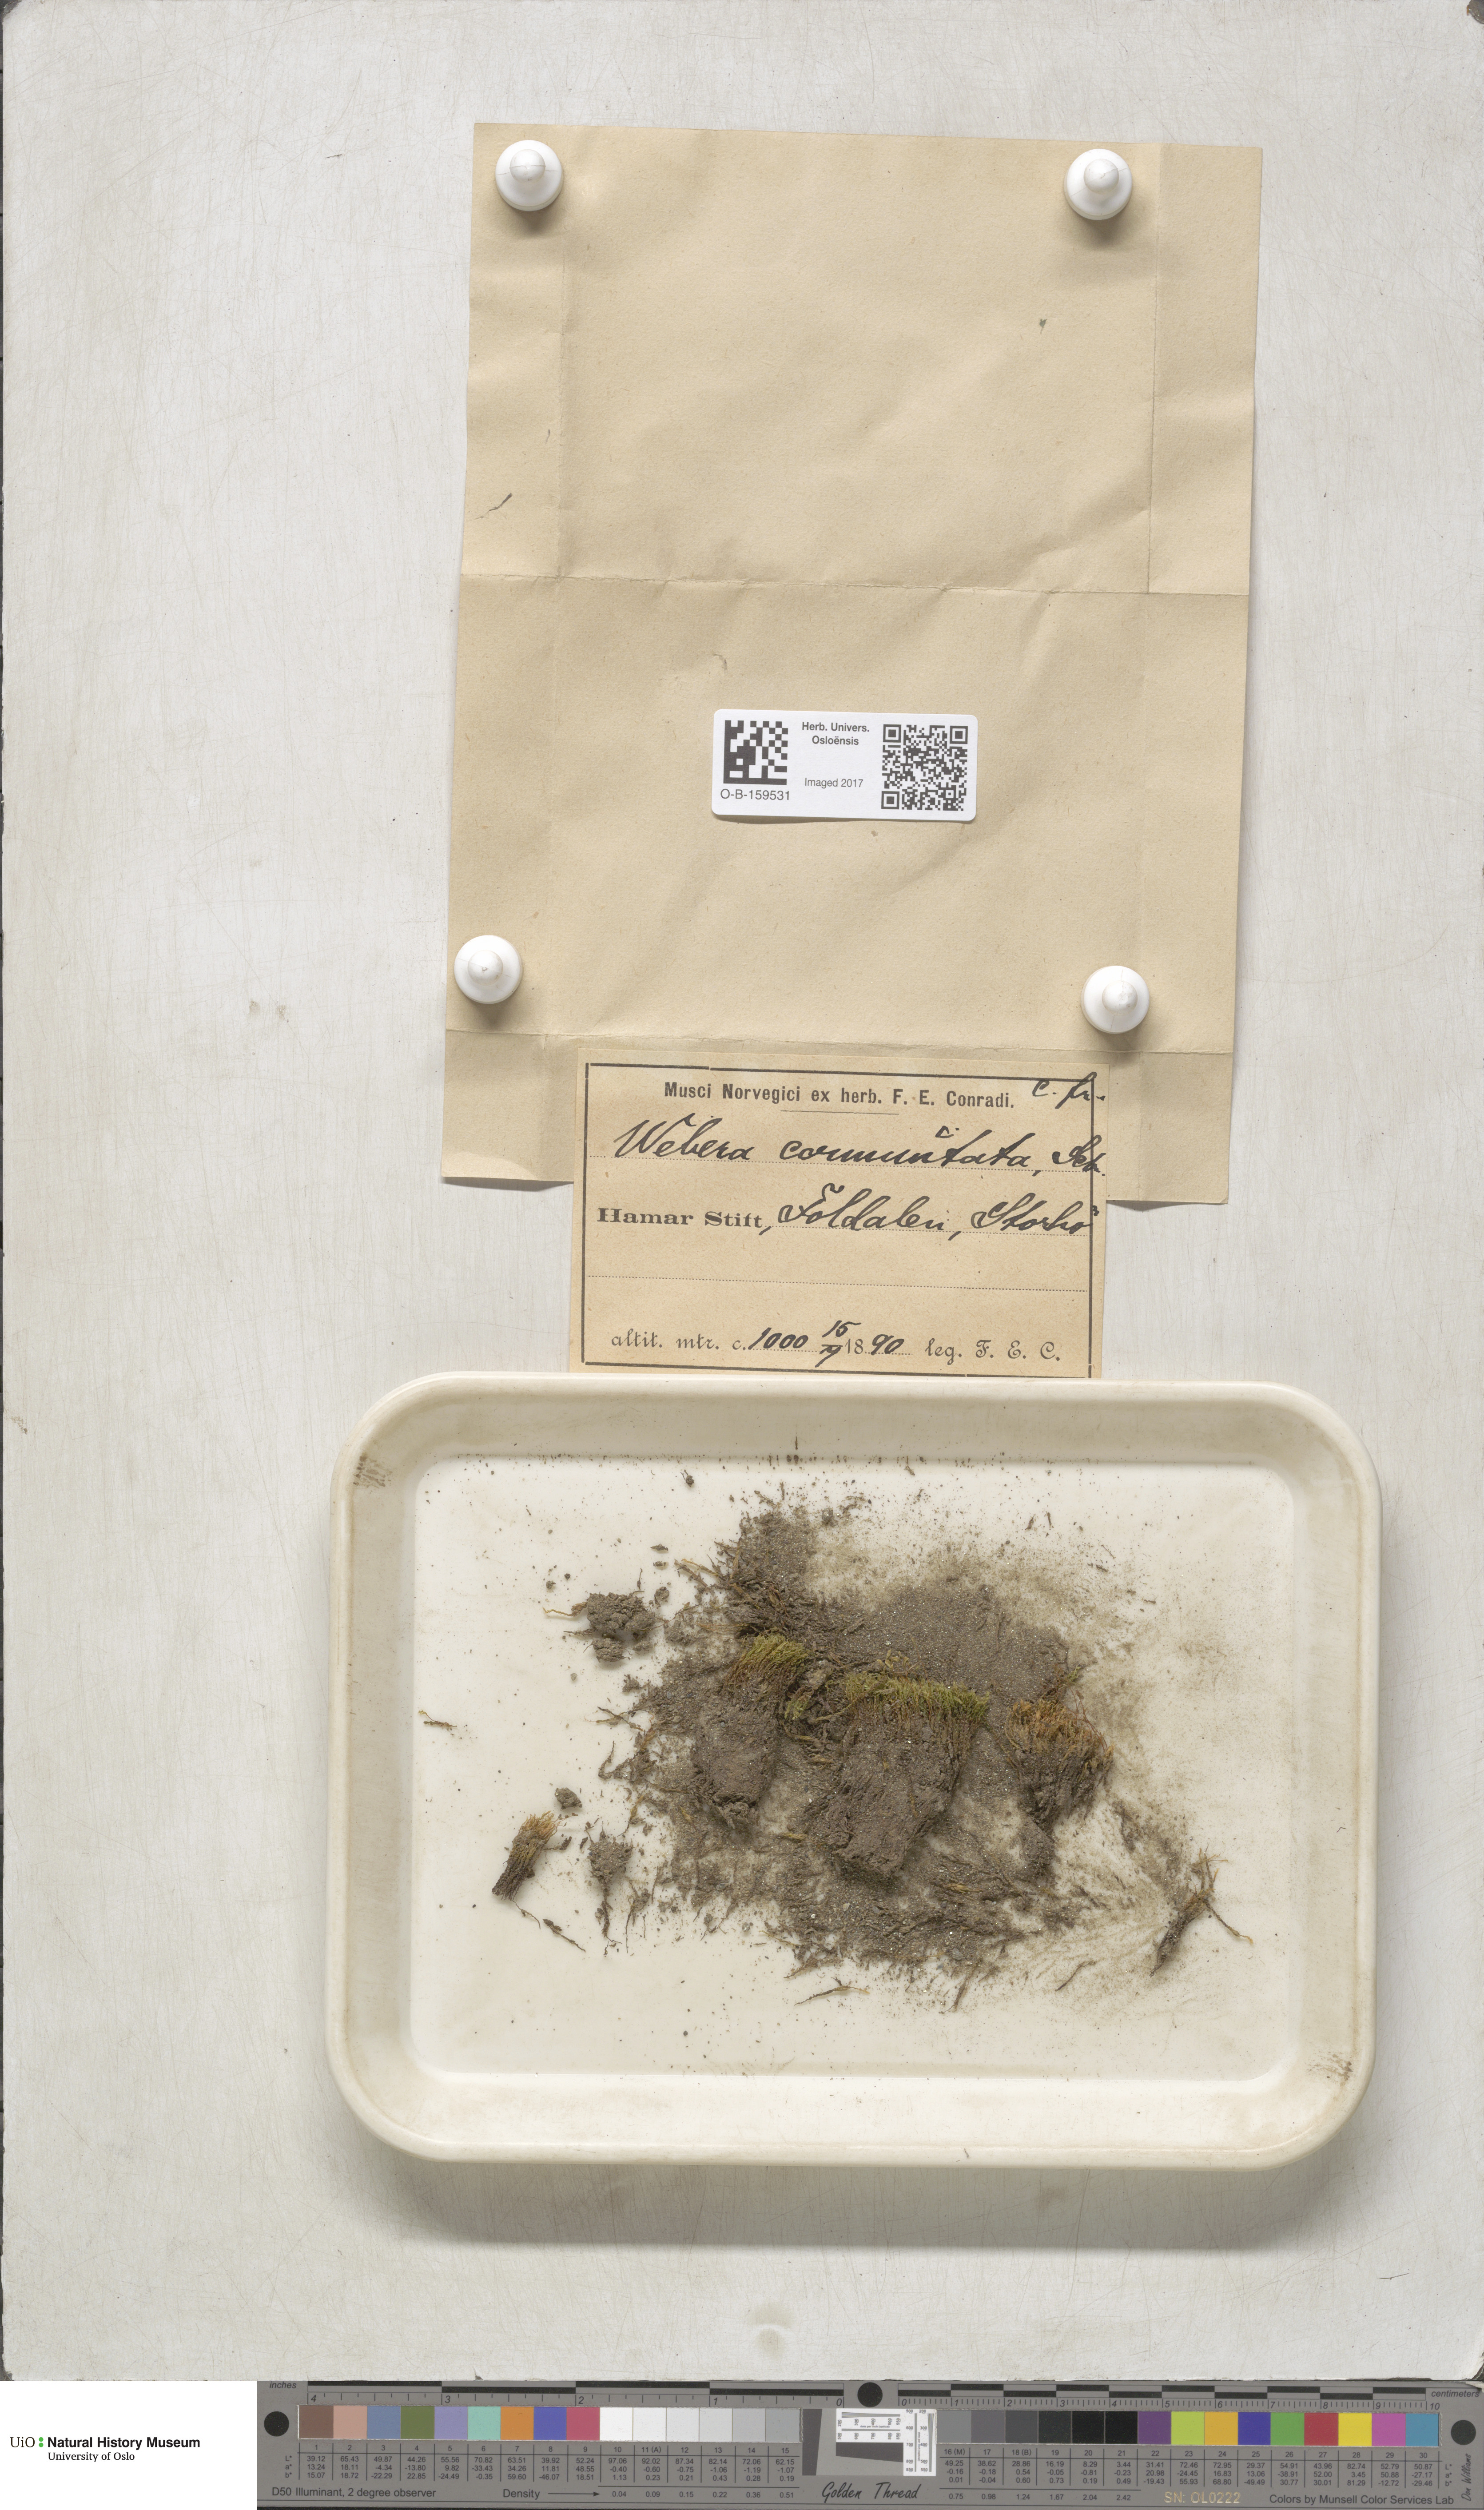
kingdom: Plantae
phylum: Bryophyta
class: Bryopsida
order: Bryales
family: Mniaceae
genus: Pohlia
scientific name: Pohlia drummondii
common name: Drummond's nodding moss
